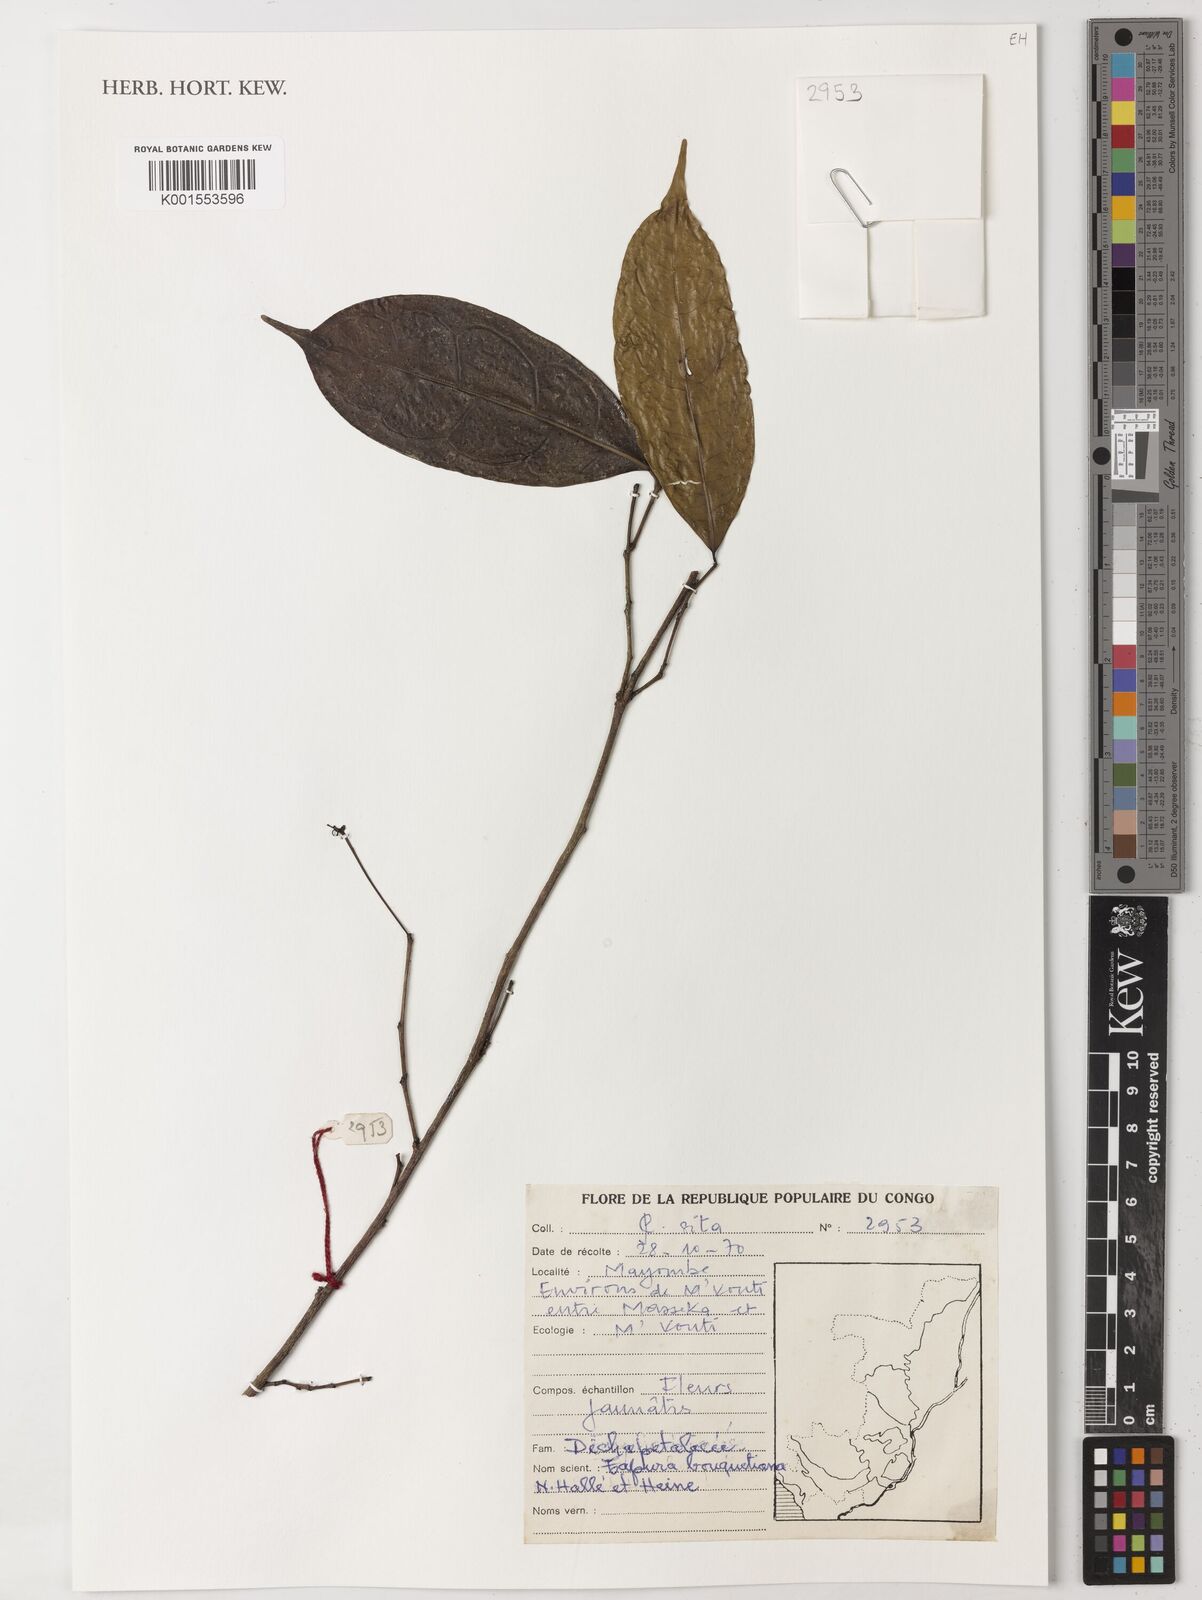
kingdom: Plantae
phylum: Tracheophyta
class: Magnoliopsida
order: Malpighiales
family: Dichapetalaceae
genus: Tapura
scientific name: Tapura bouquetiana
